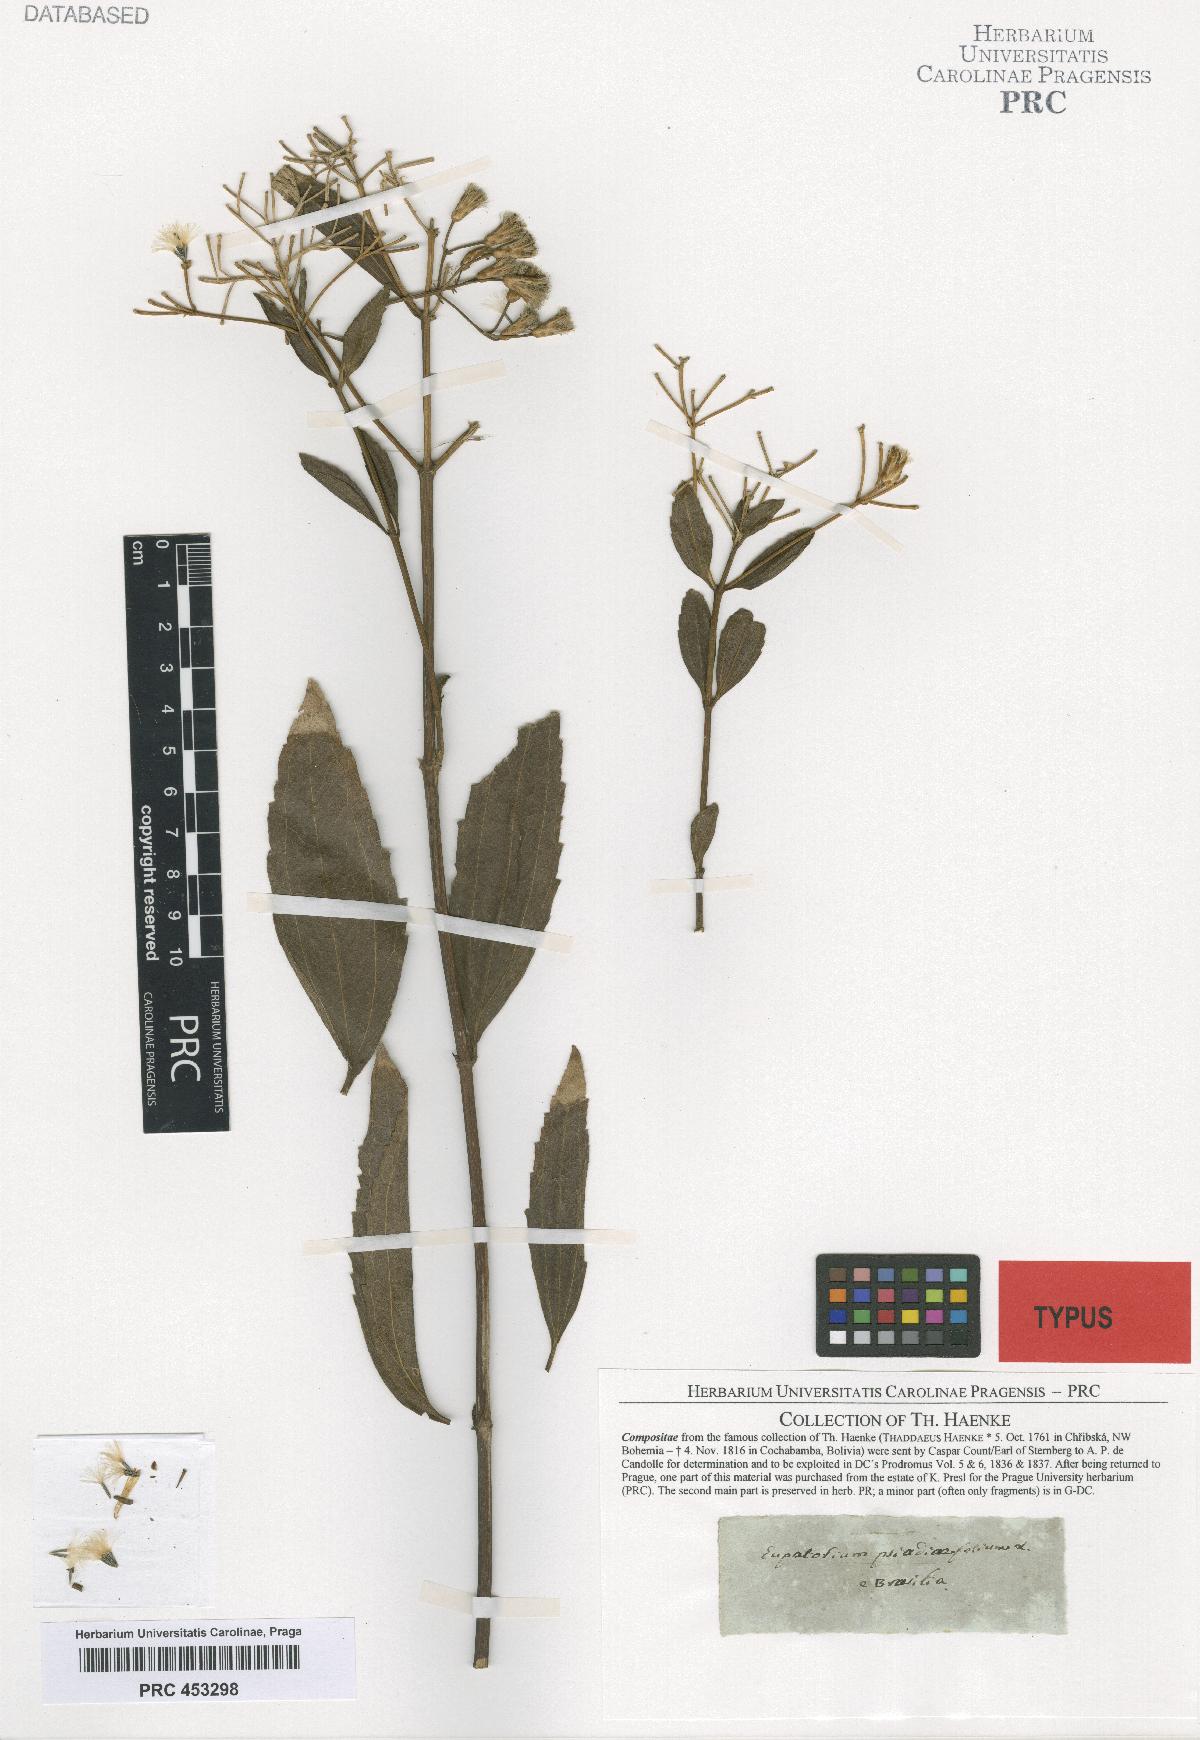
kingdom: Plantae
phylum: Tracheophyta
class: Magnoliopsida
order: Asterales
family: Asteraceae
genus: Chromolaena
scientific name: Chromolaena laevigata
